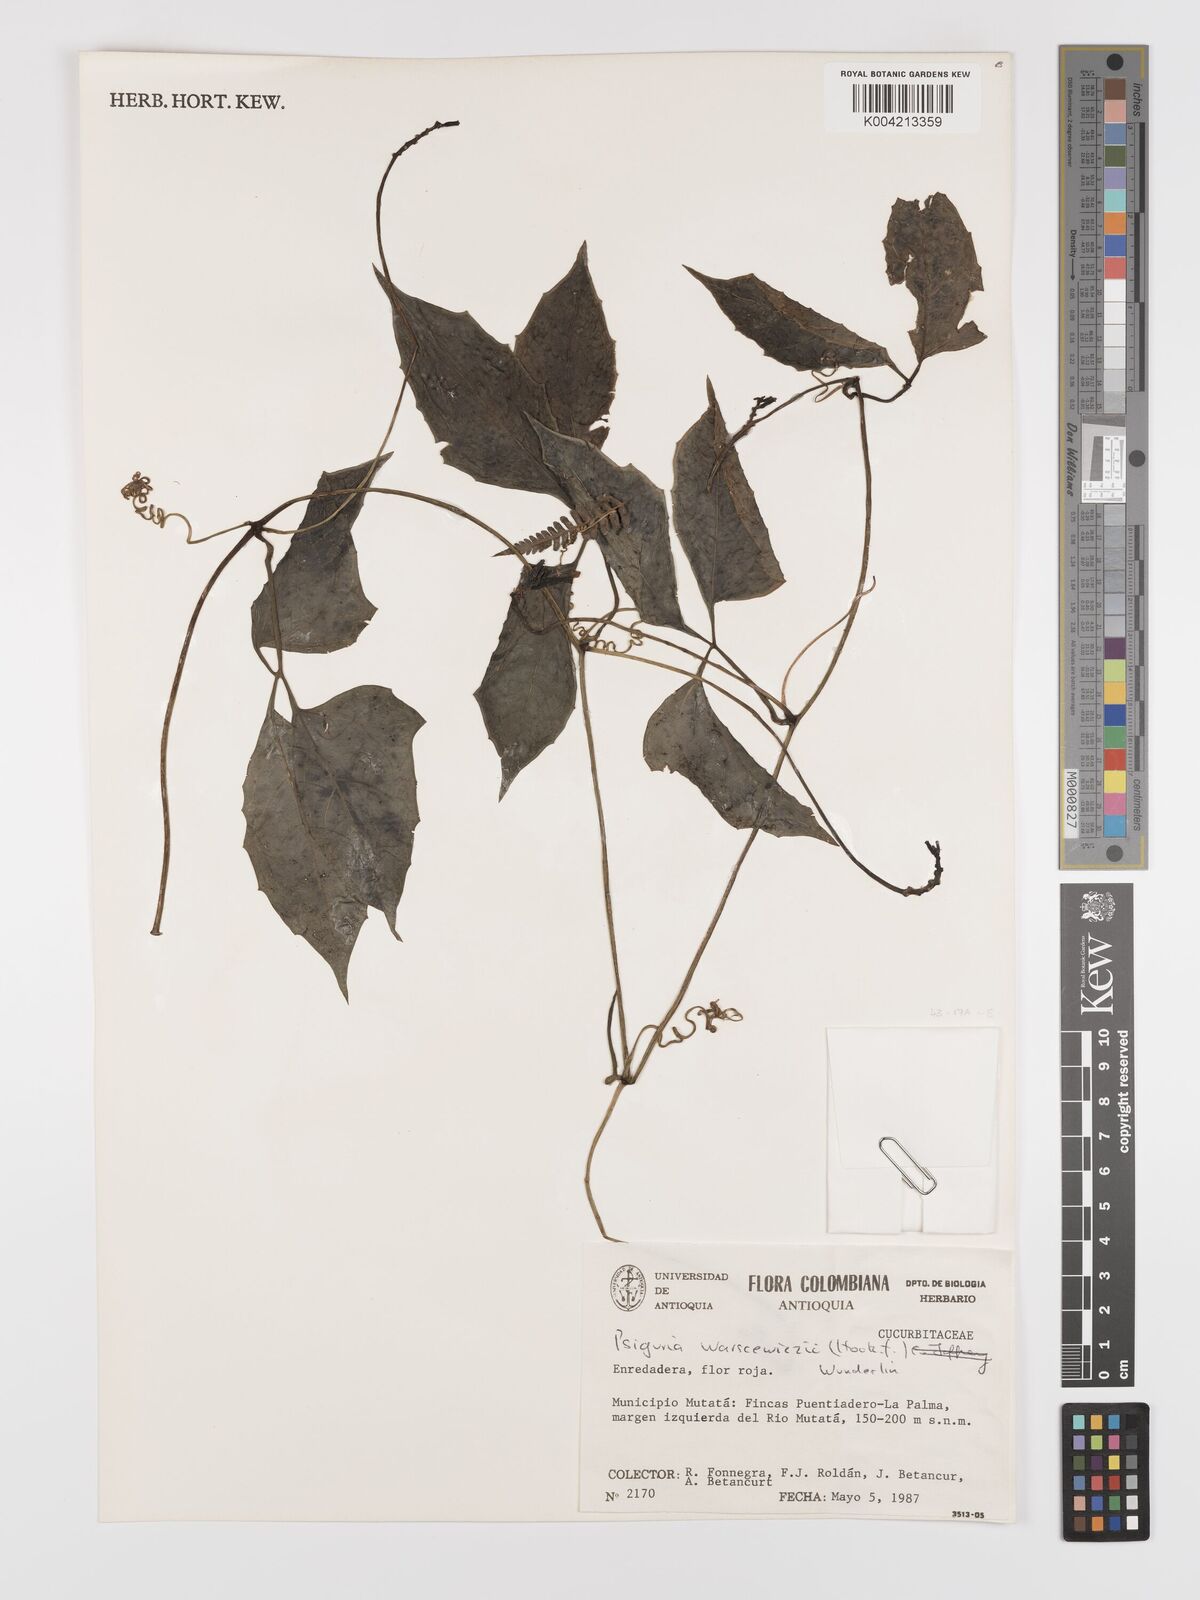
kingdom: Plantae
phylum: Tracheophyta
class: Magnoliopsida
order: Cucurbitales
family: Cucurbitaceae
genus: Psiguria
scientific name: Psiguria warscewiczii
